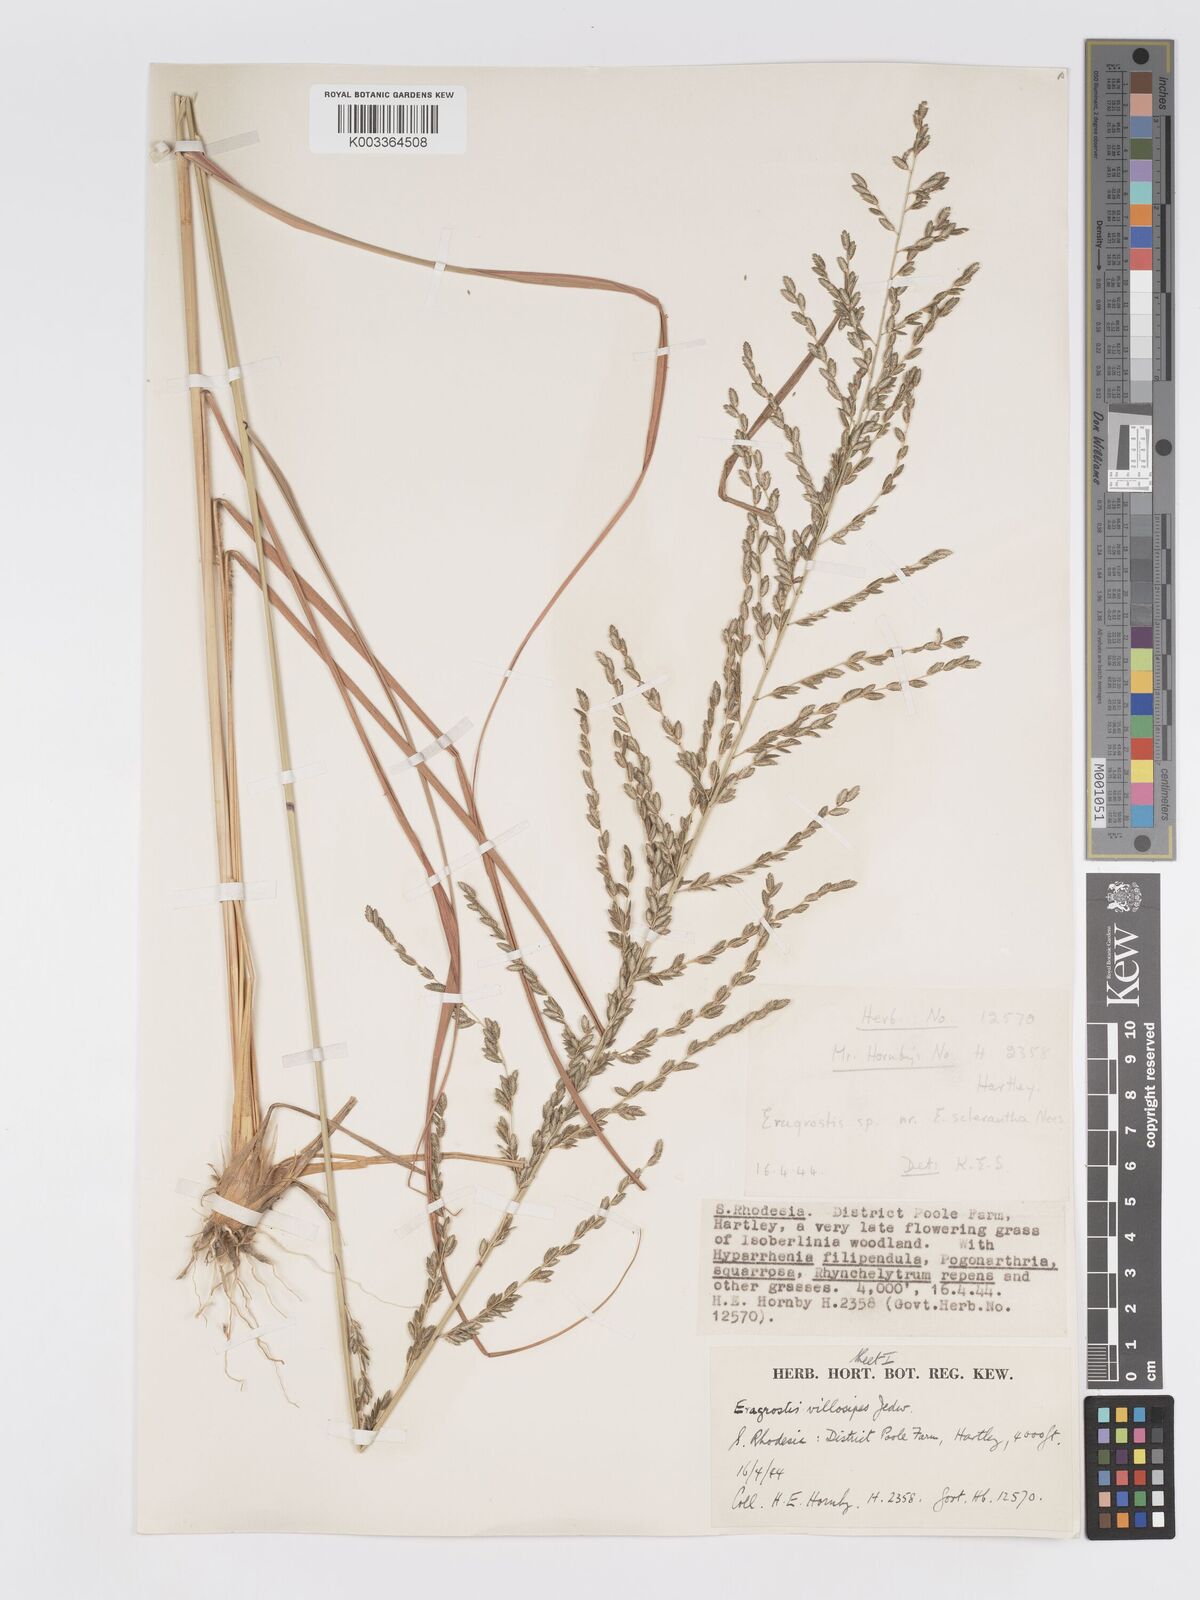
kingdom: Plantae
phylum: Tracheophyta
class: Liliopsida
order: Poales
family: Poaceae
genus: Eragrostis
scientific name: Eragrostis sclerantha
